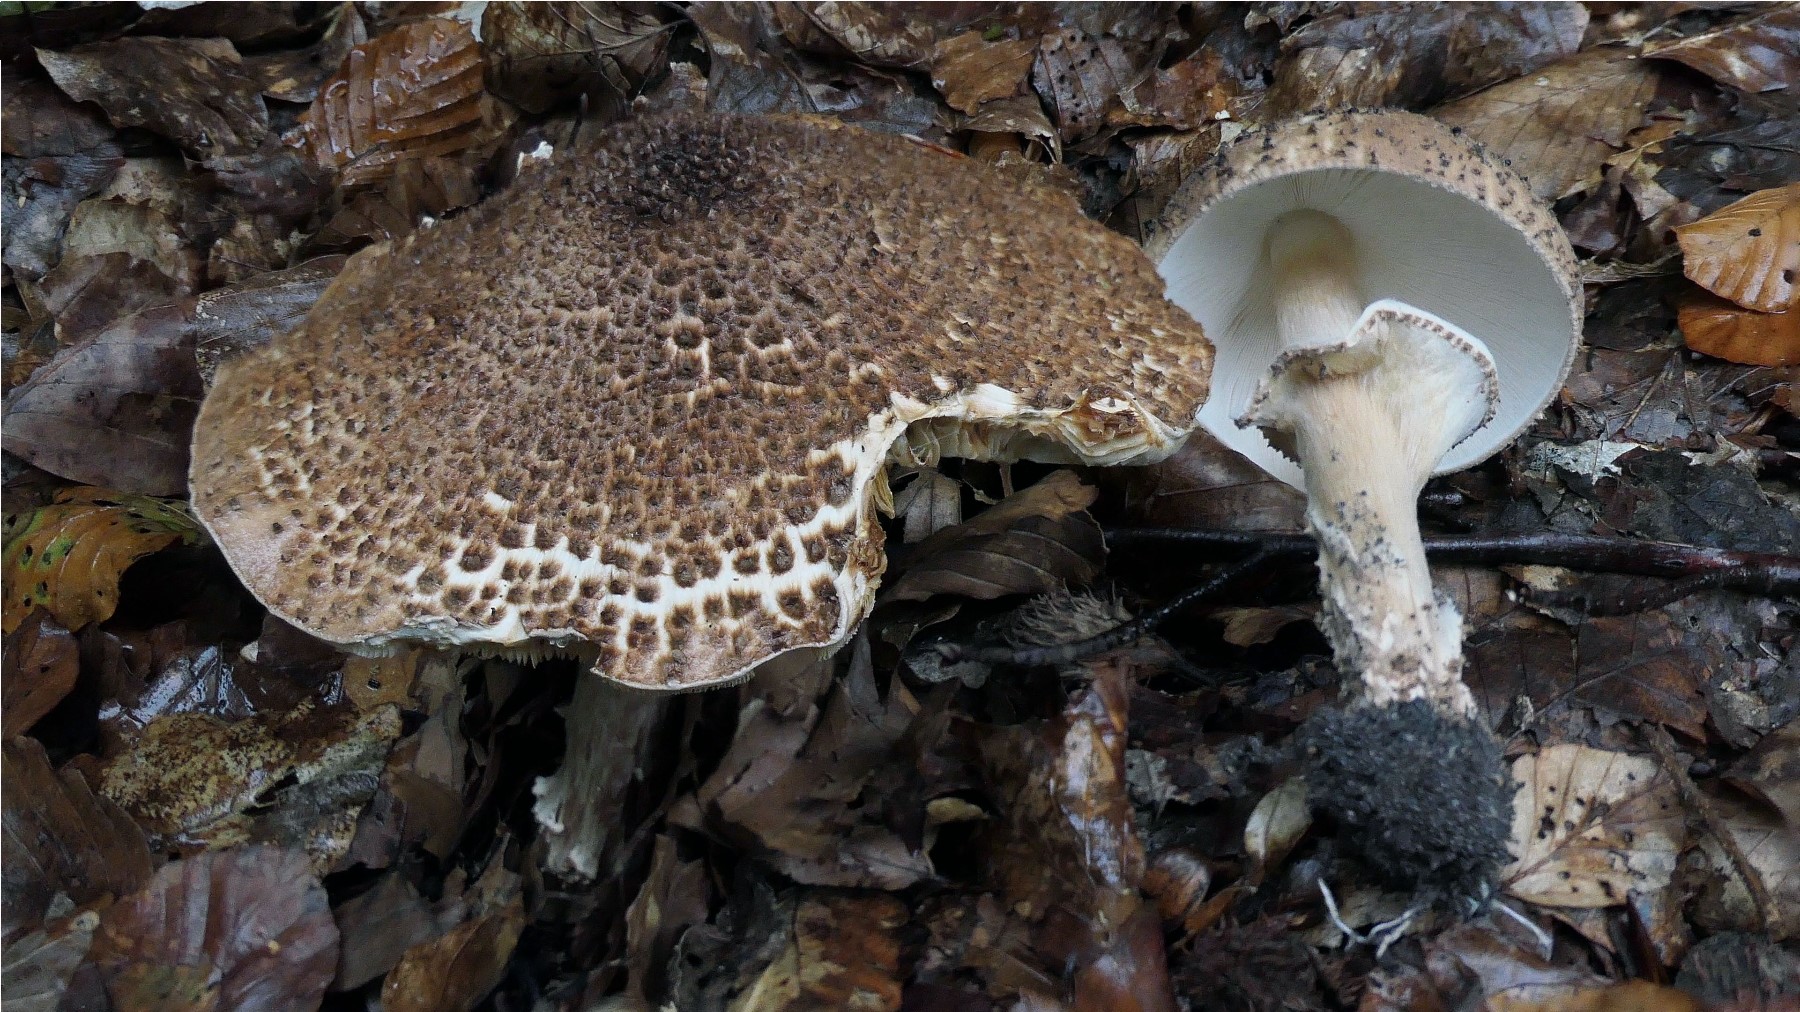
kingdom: Fungi
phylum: Basidiomycota
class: Agaricomycetes
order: Agaricales
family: Agaricaceae
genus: Echinoderma
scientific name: Echinoderma asperum
